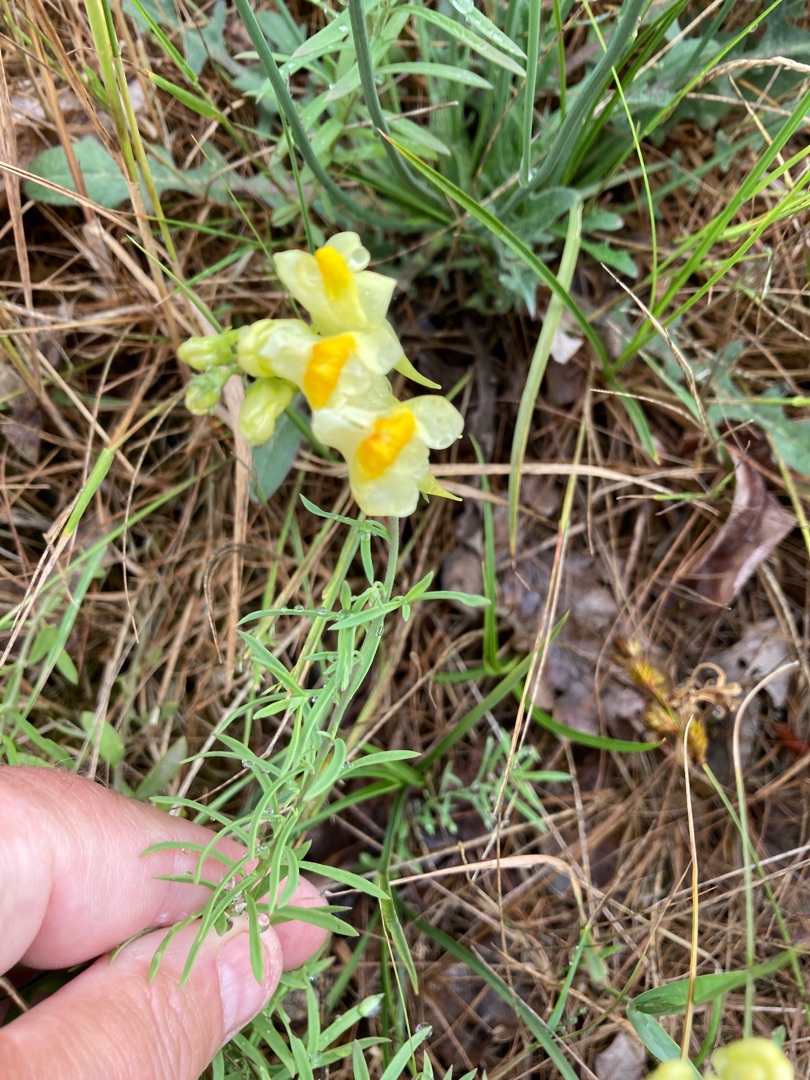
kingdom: Plantae
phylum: Tracheophyta
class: Magnoliopsida
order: Lamiales
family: Plantaginaceae
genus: Linaria
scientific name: Linaria vulgaris
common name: Almindelig torskemund
